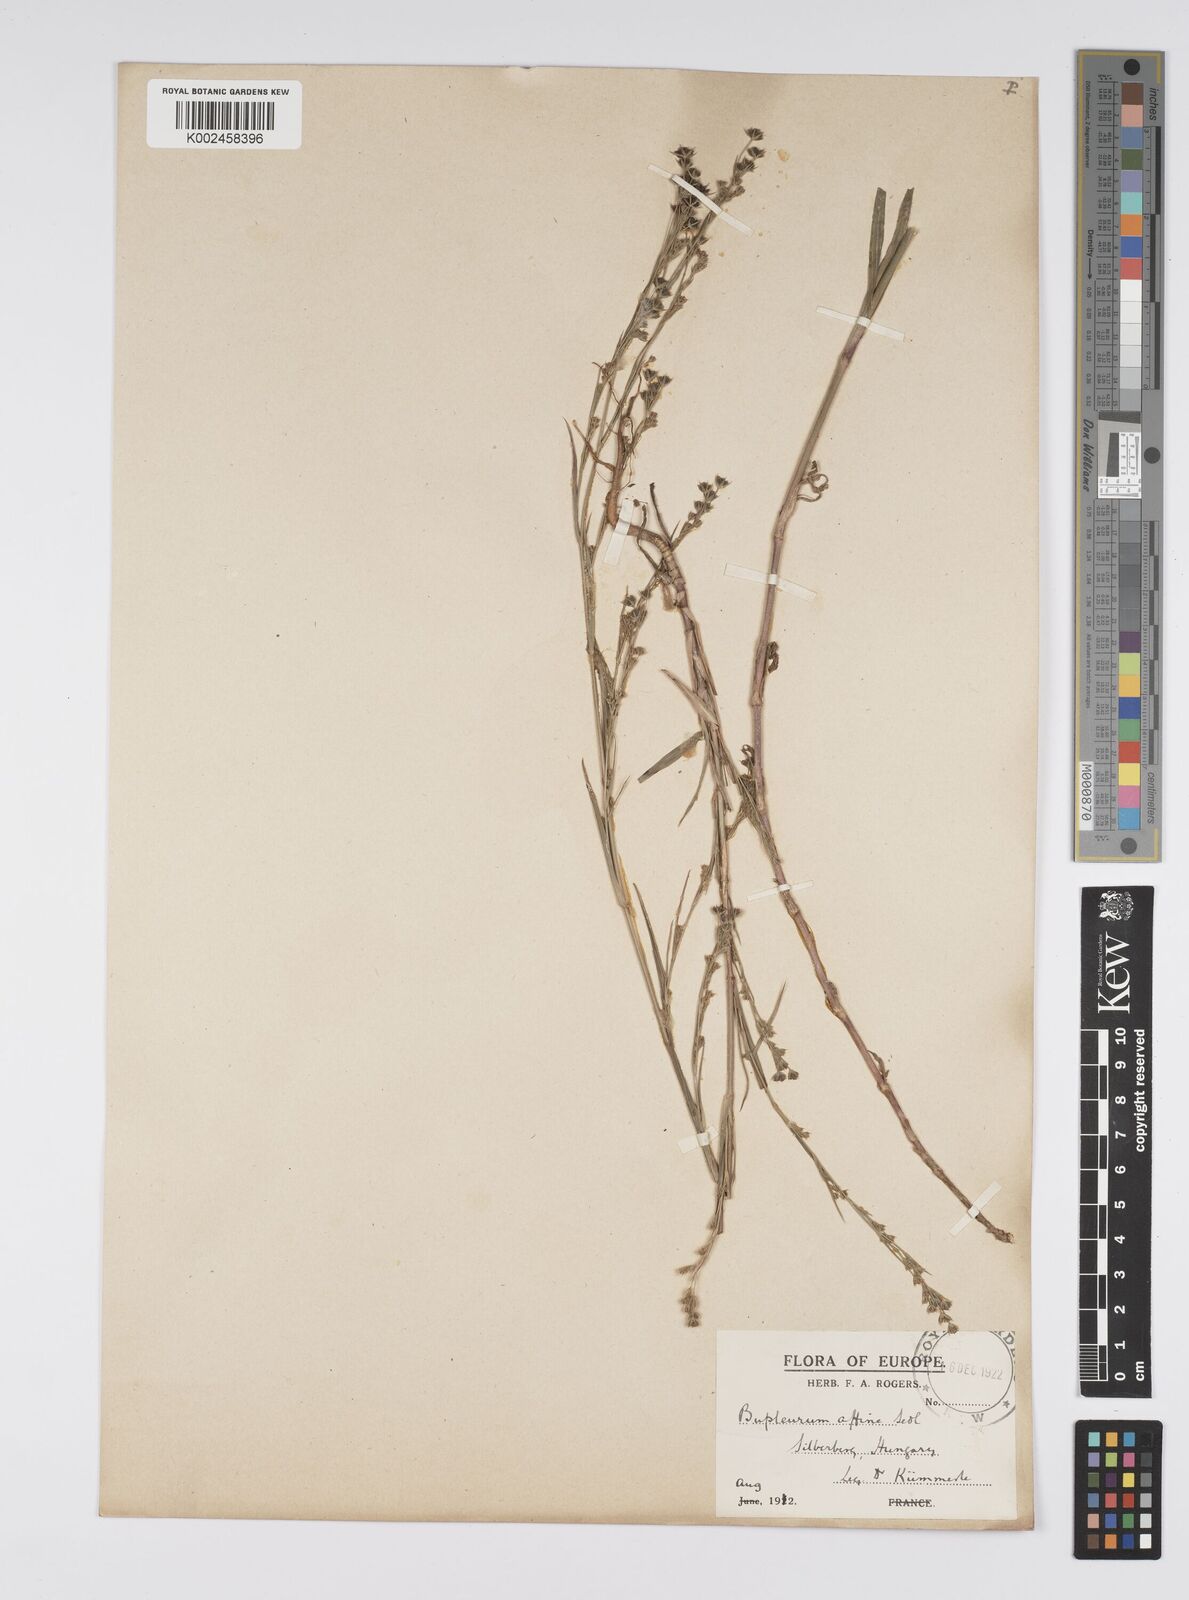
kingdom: Plantae
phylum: Tracheophyta
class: Magnoliopsida
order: Apiales
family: Apiaceae
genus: Bupleurum
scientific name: Bupleurum affine
